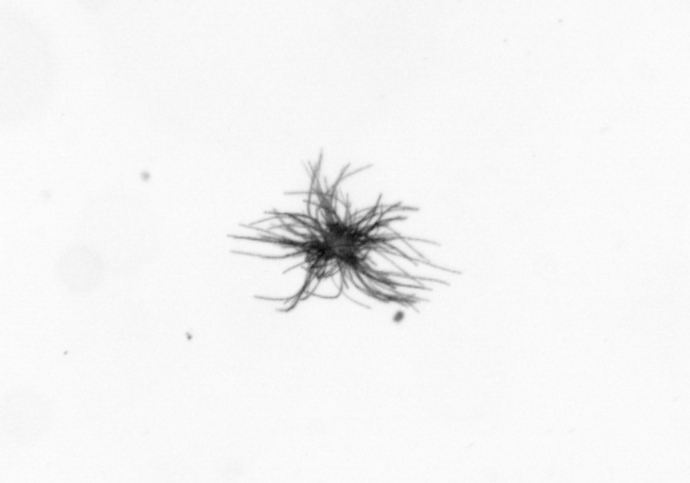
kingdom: Bacteria
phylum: Cyanobacteria
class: Cyanobacteriia
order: Cyanobacteriales
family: Microcoleaceae
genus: Trichodesmium
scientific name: Trichodesmium
